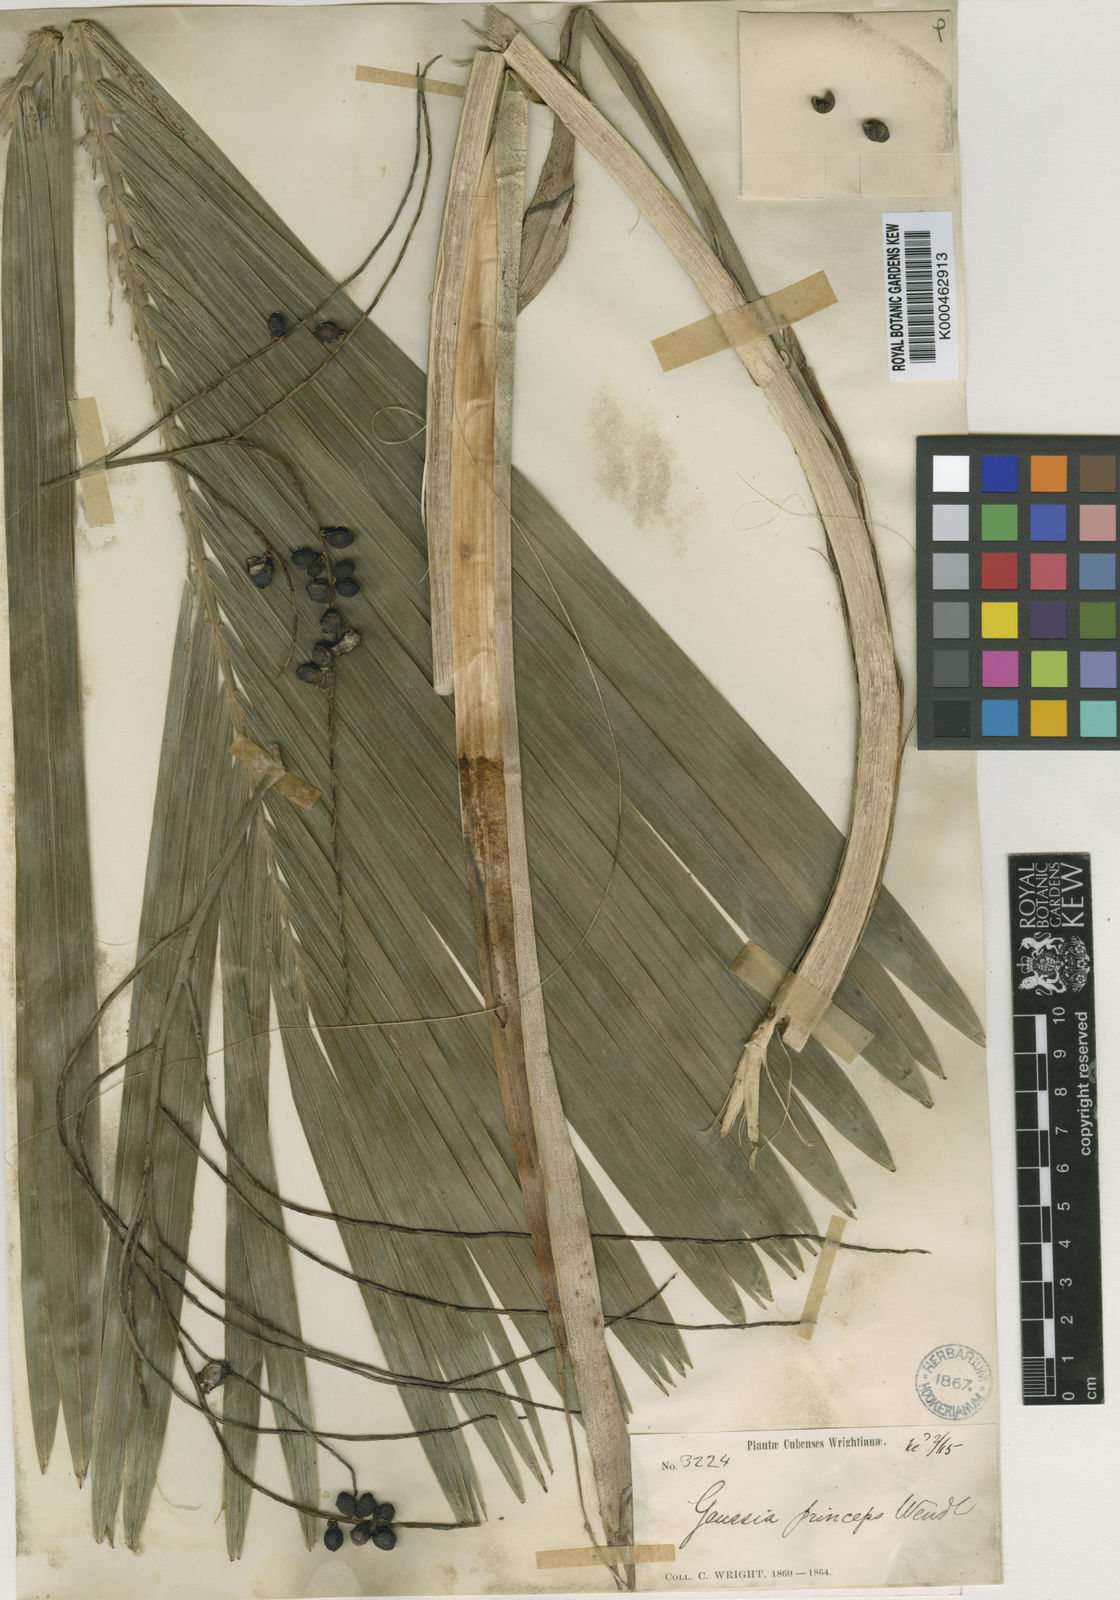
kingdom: Plantae
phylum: Tracheophyta
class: Liliopsida
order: Arecales
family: Arecaceae
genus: Gaussia
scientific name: Gaussia princeps
